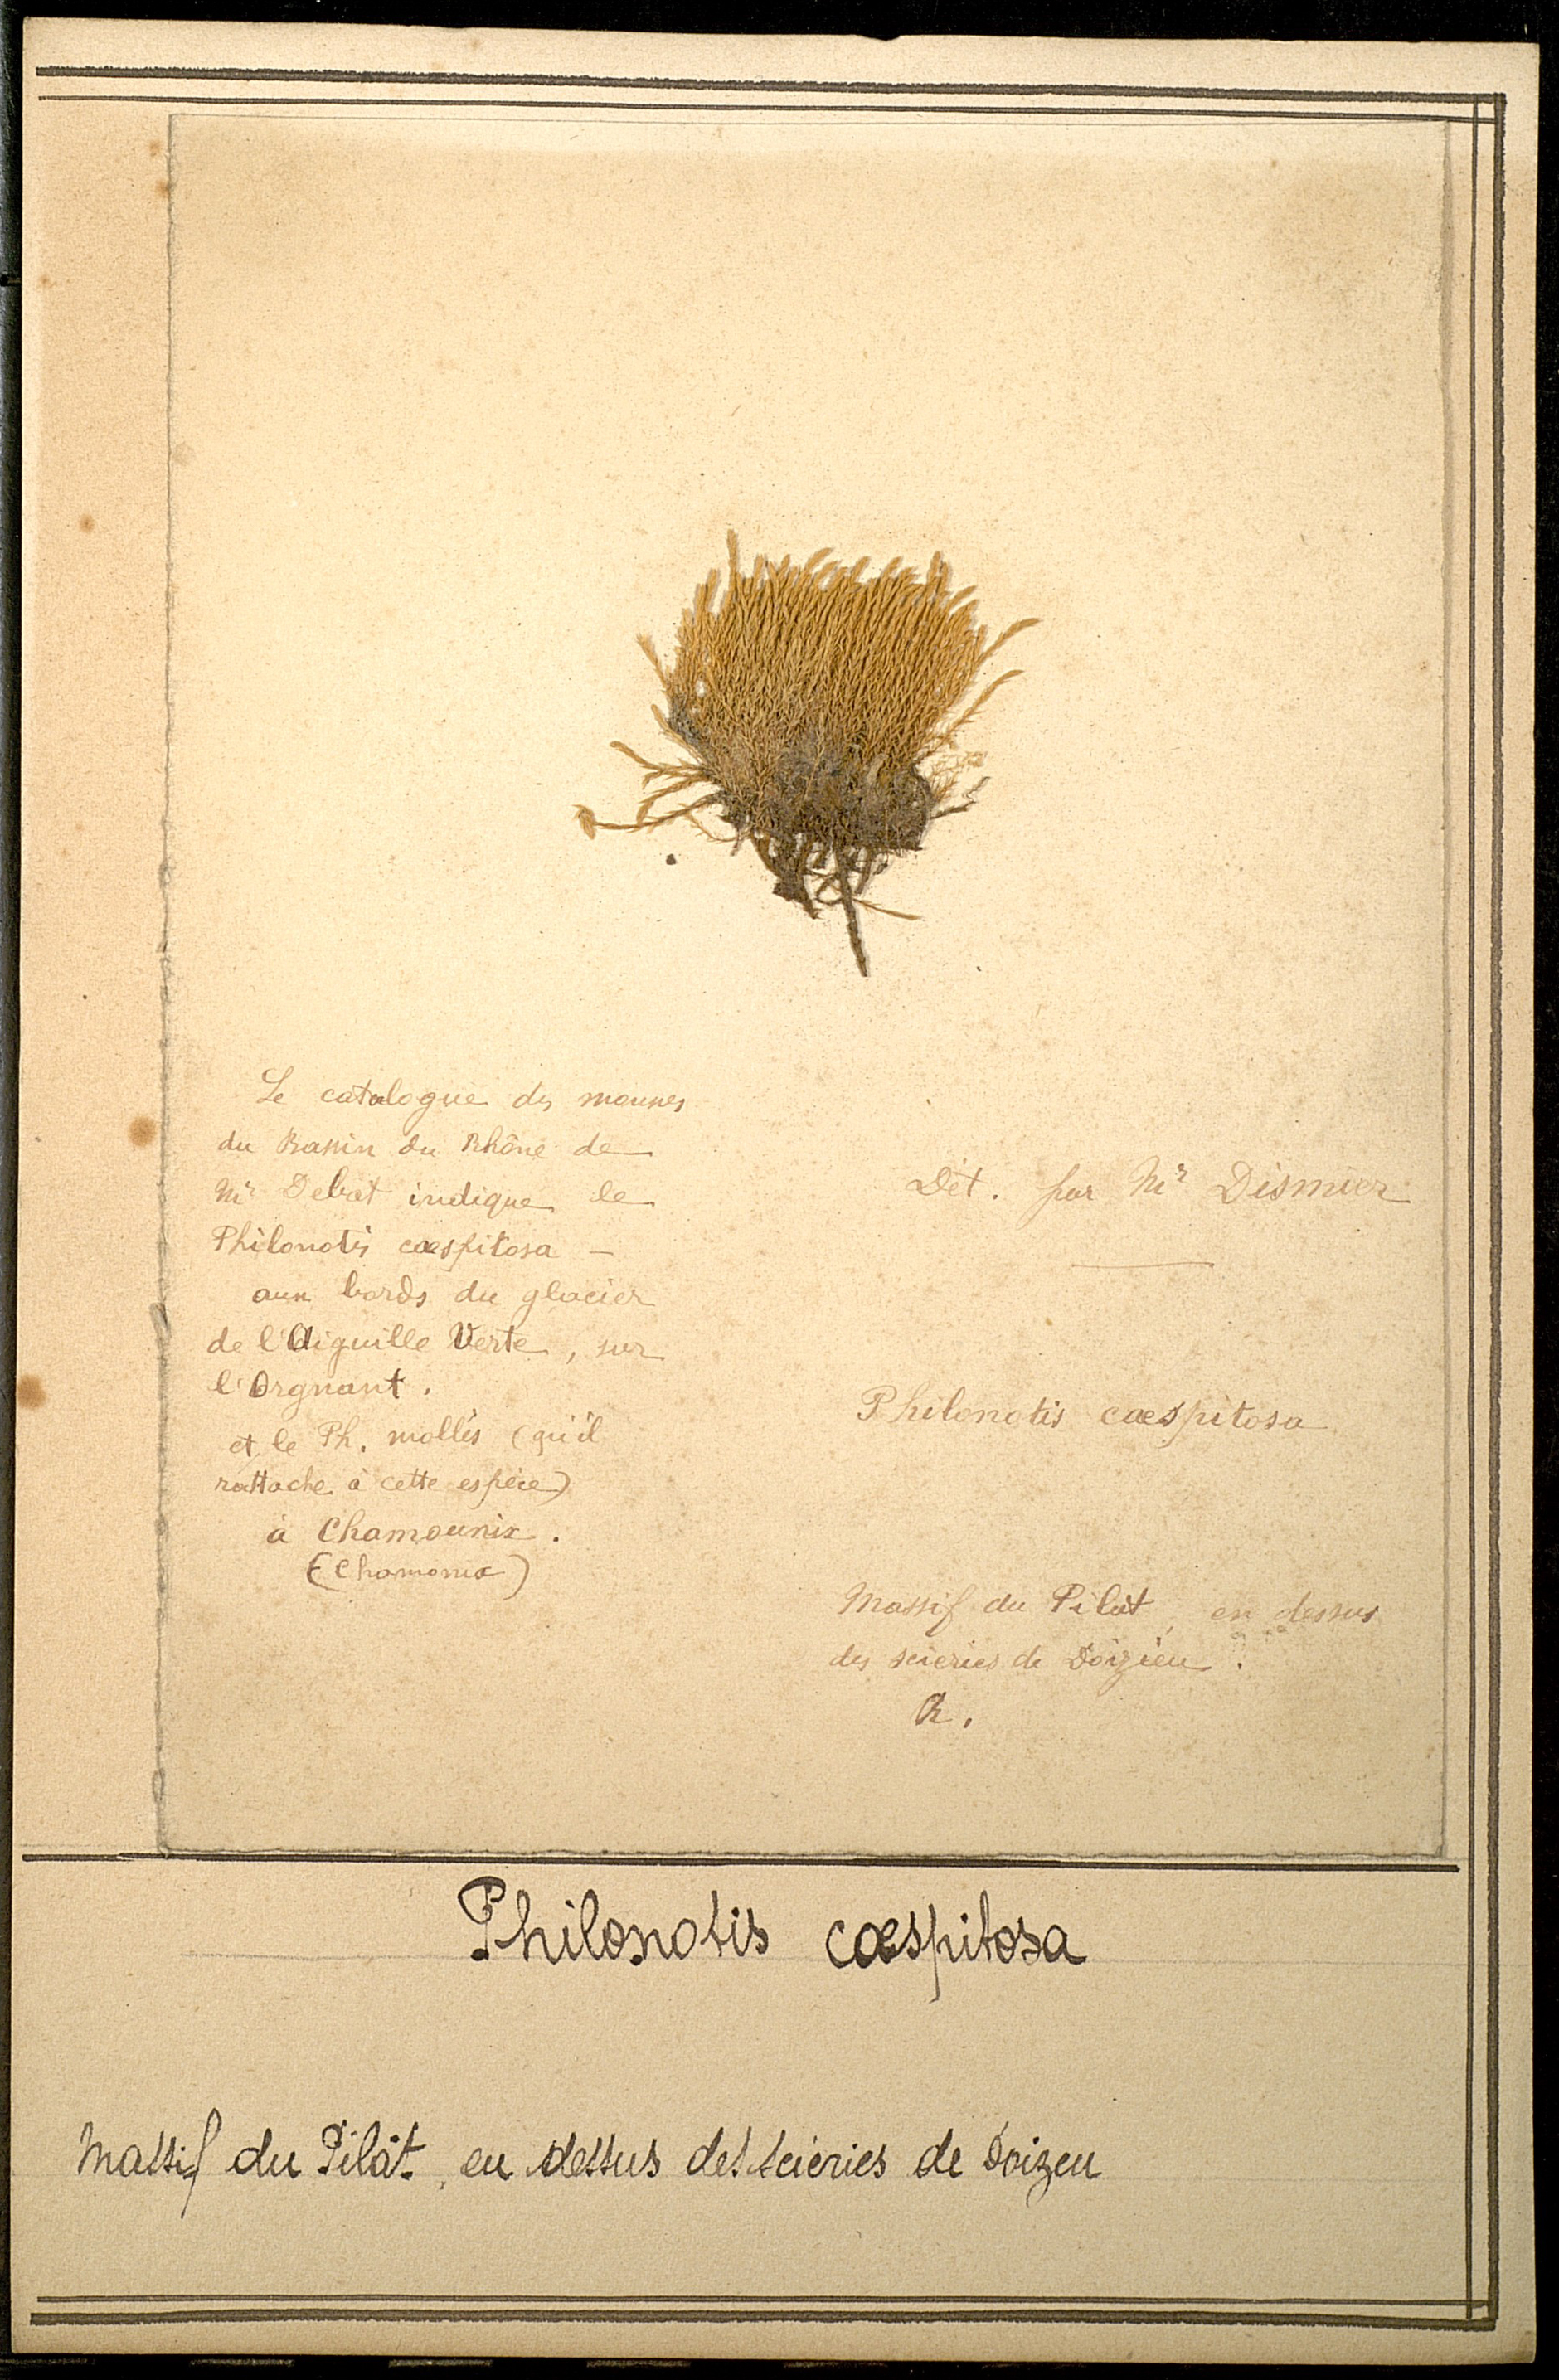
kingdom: Plantae
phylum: Bryophyta
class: Bryopsida
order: Bartramiales
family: Bartramiaceae
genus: Philonotis
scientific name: Philonotis caespitosa
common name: Tufted apple-moss
